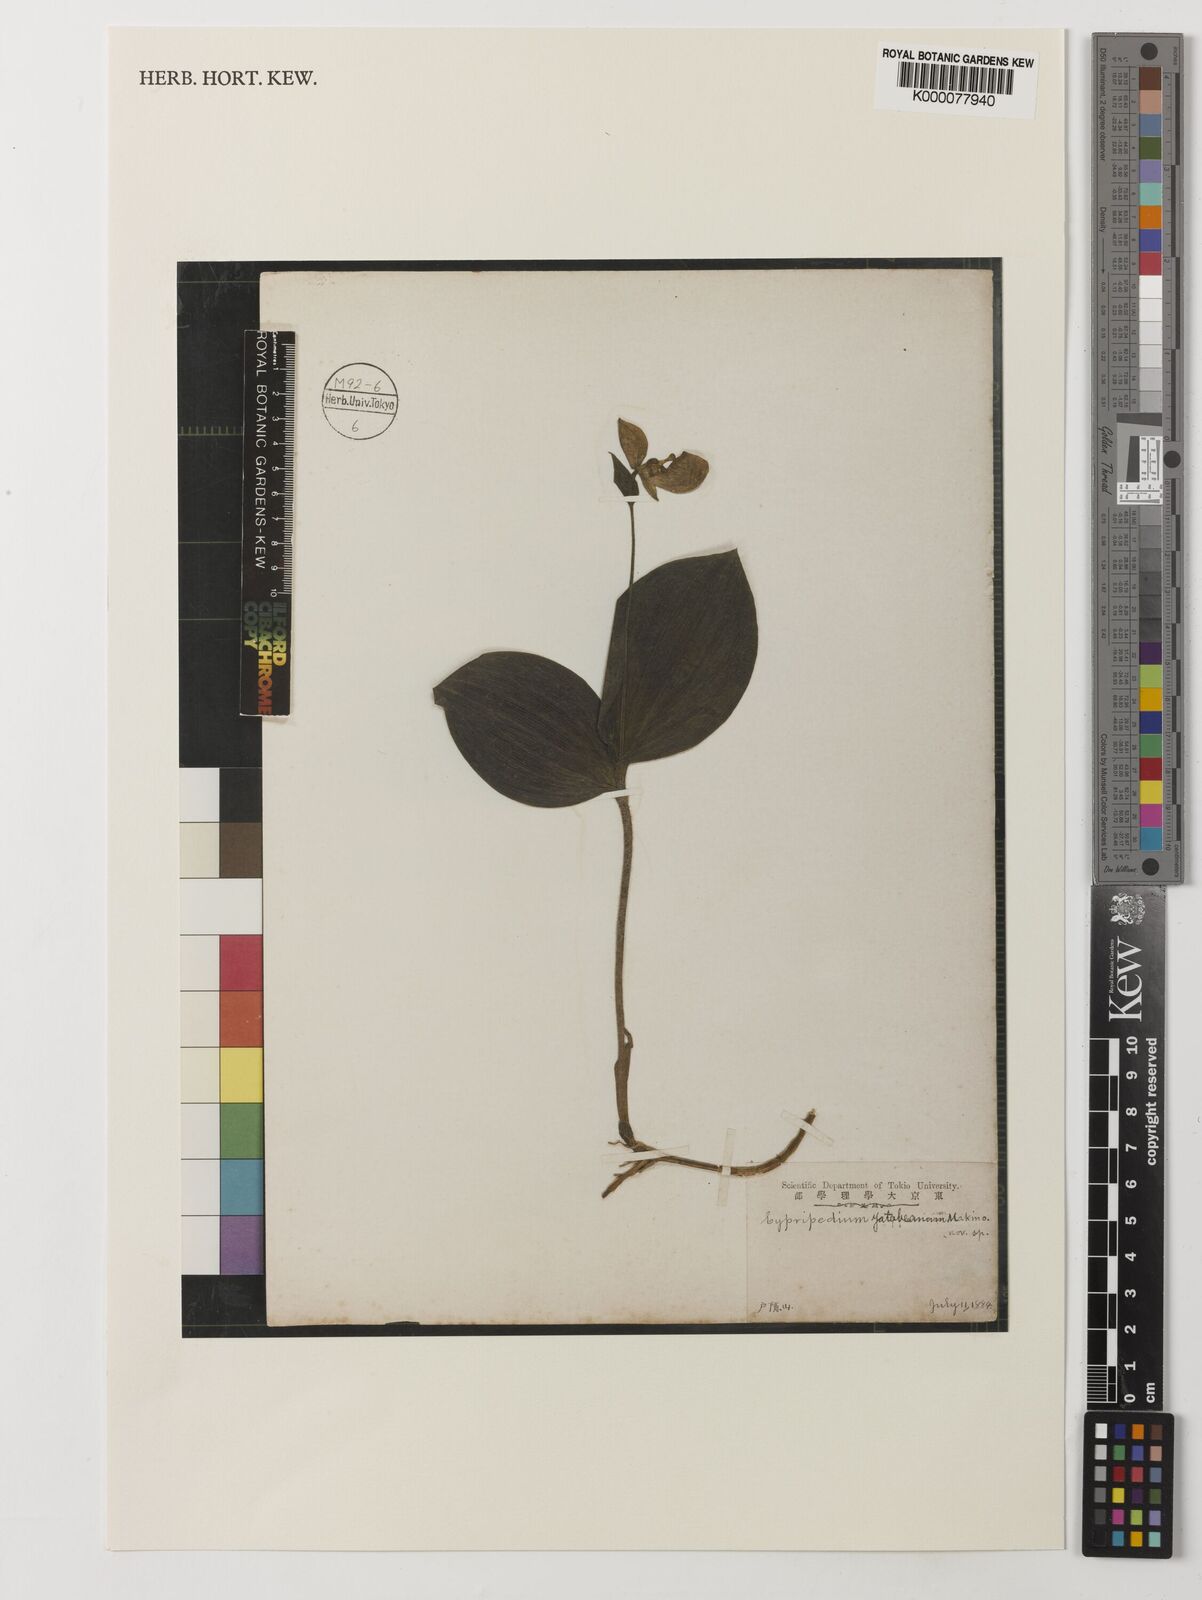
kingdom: Plantae
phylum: Tracheophyta
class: Liliopsida
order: Asparagales
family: Orchidaceae
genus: Cypripedium
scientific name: Cypripedium yatabeanum
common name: Spotted lady's slipper
